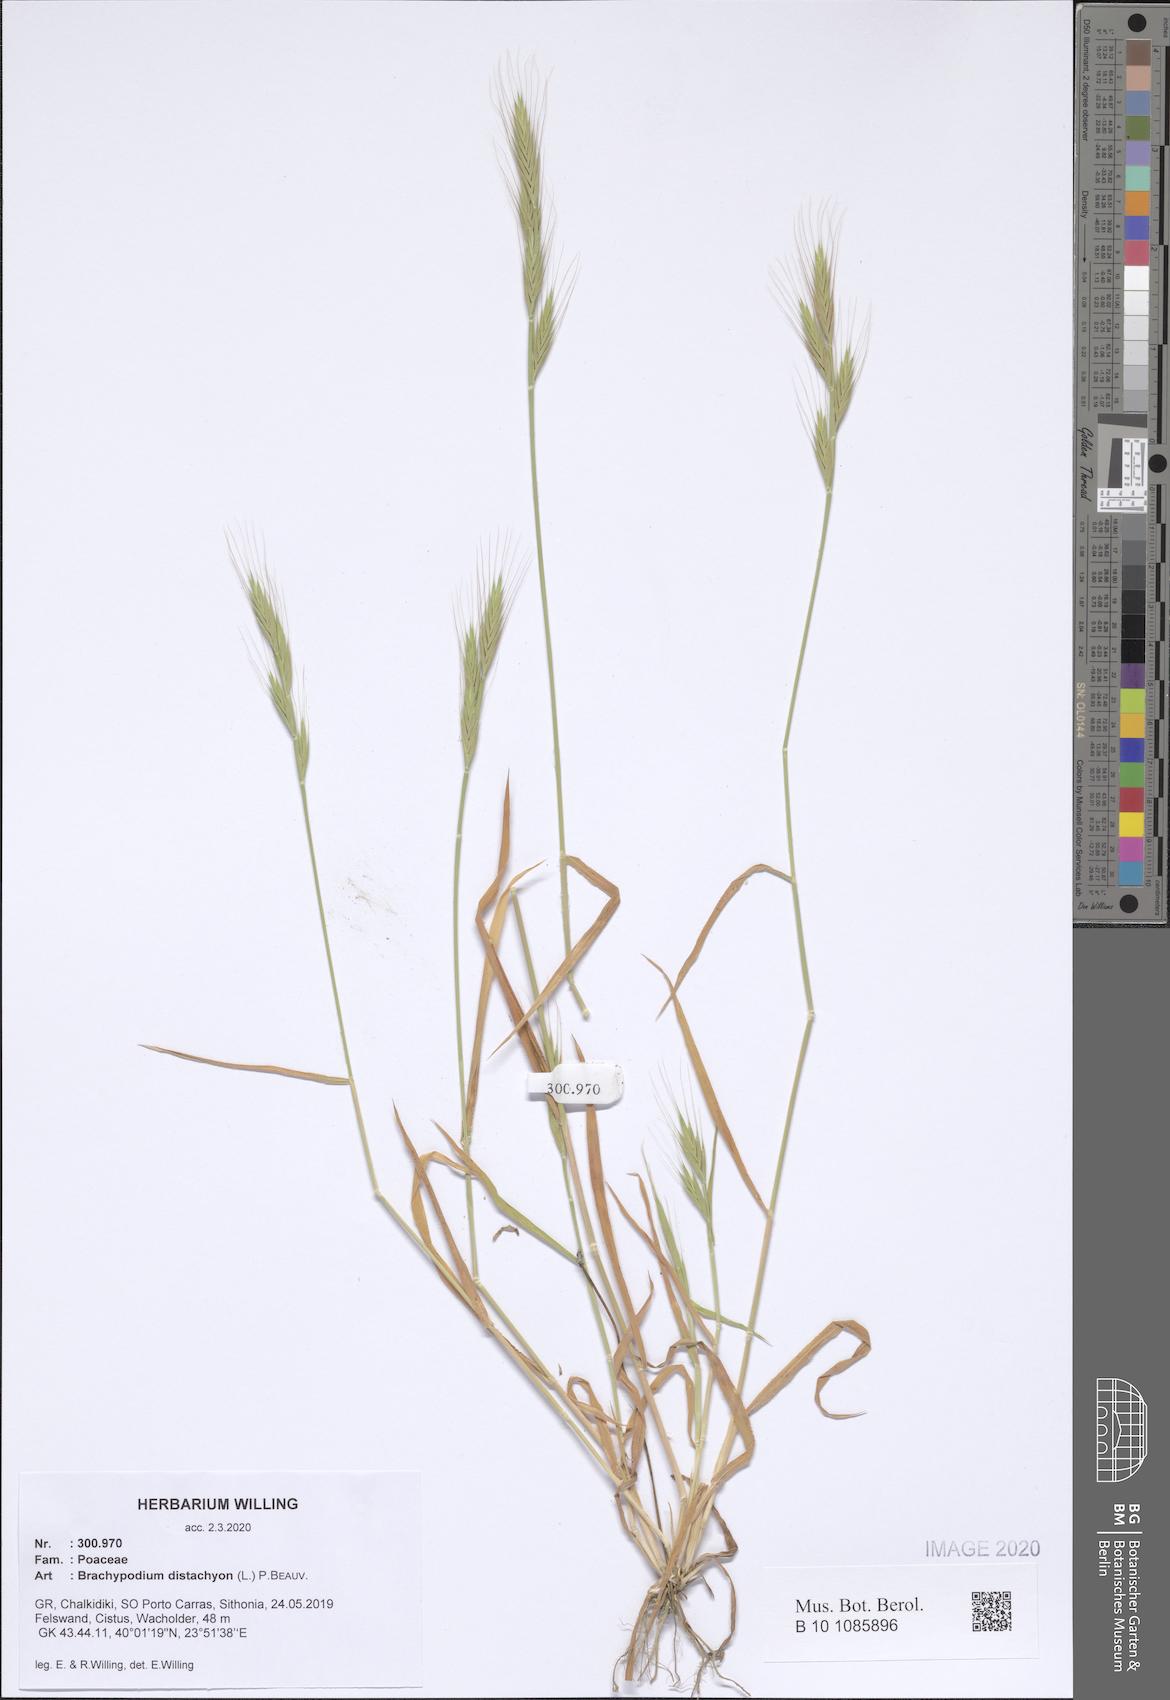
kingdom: Plantae
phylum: Tracheophyta
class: Liliopsida
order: Poales
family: Poaceae
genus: Brachypodium
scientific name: Brachypodium distachyon
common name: Stiff brome
